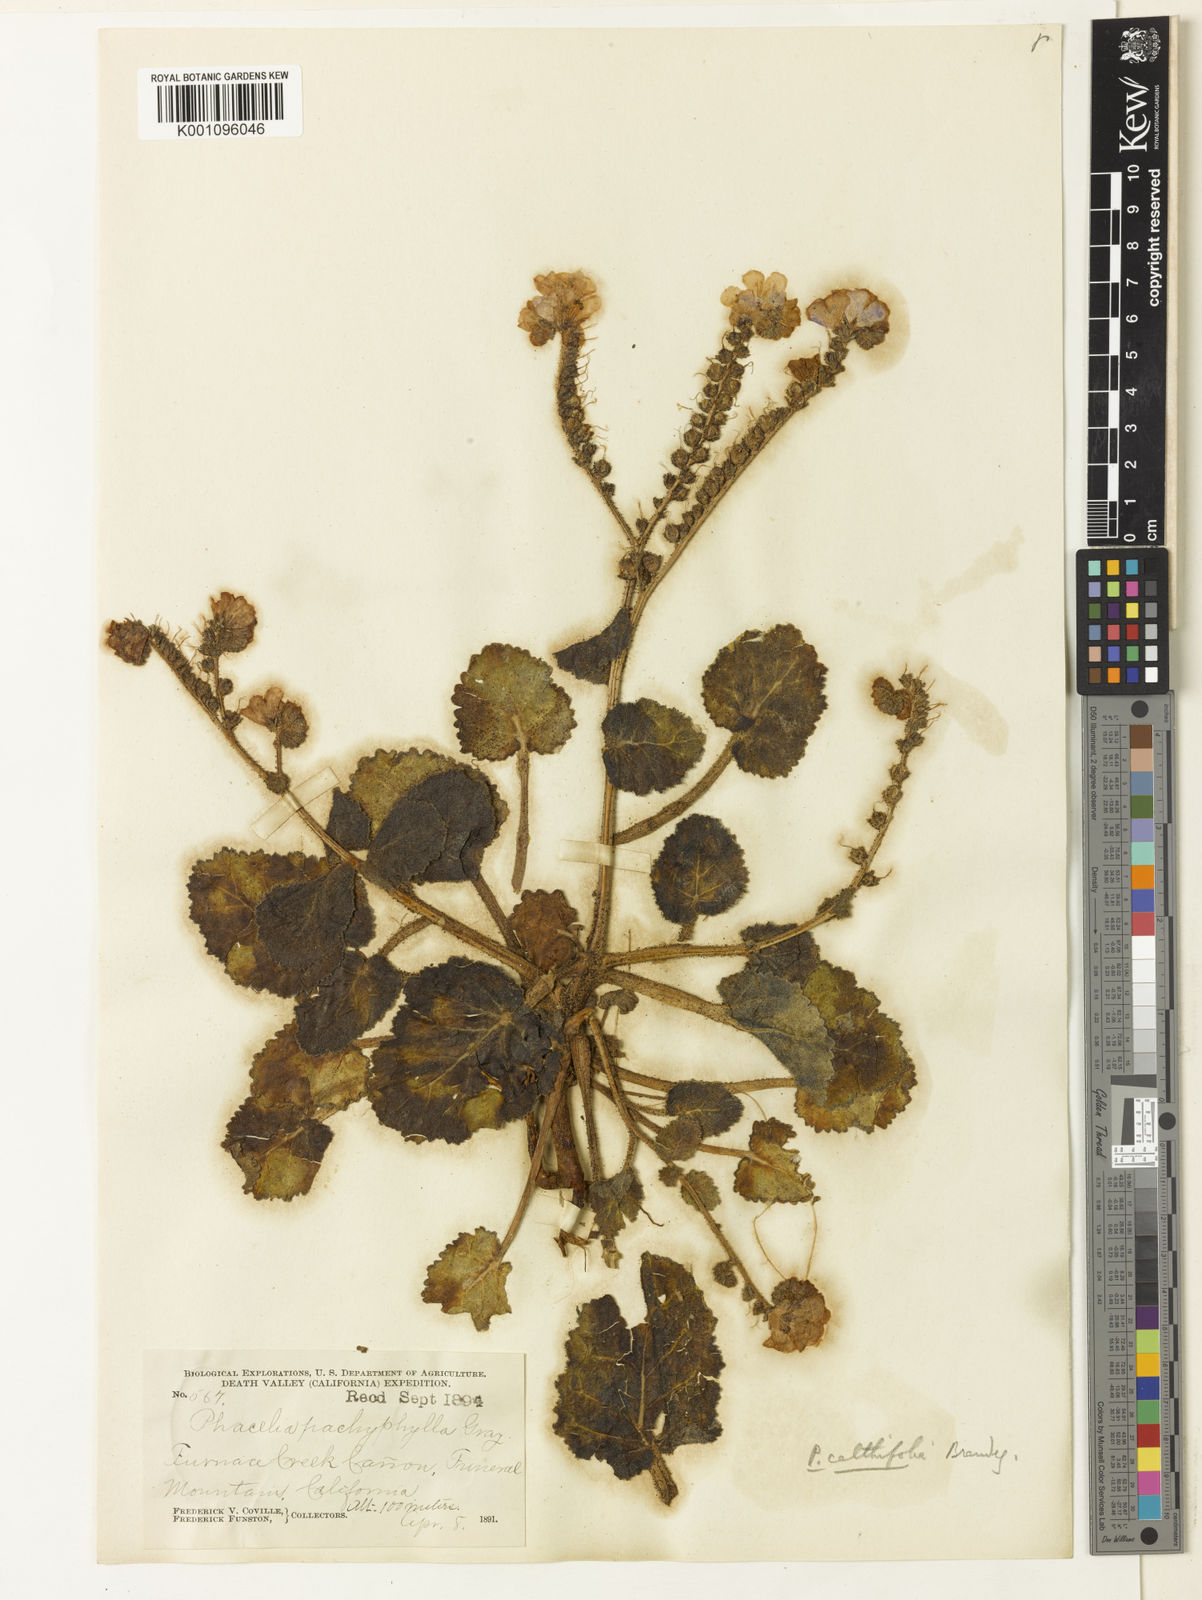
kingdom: Plantae
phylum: Tracheophyta
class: Magnoliopsida
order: Boraginales
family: Hydrophyllaceae
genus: Phacelia
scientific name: Phacelia calthifolia
